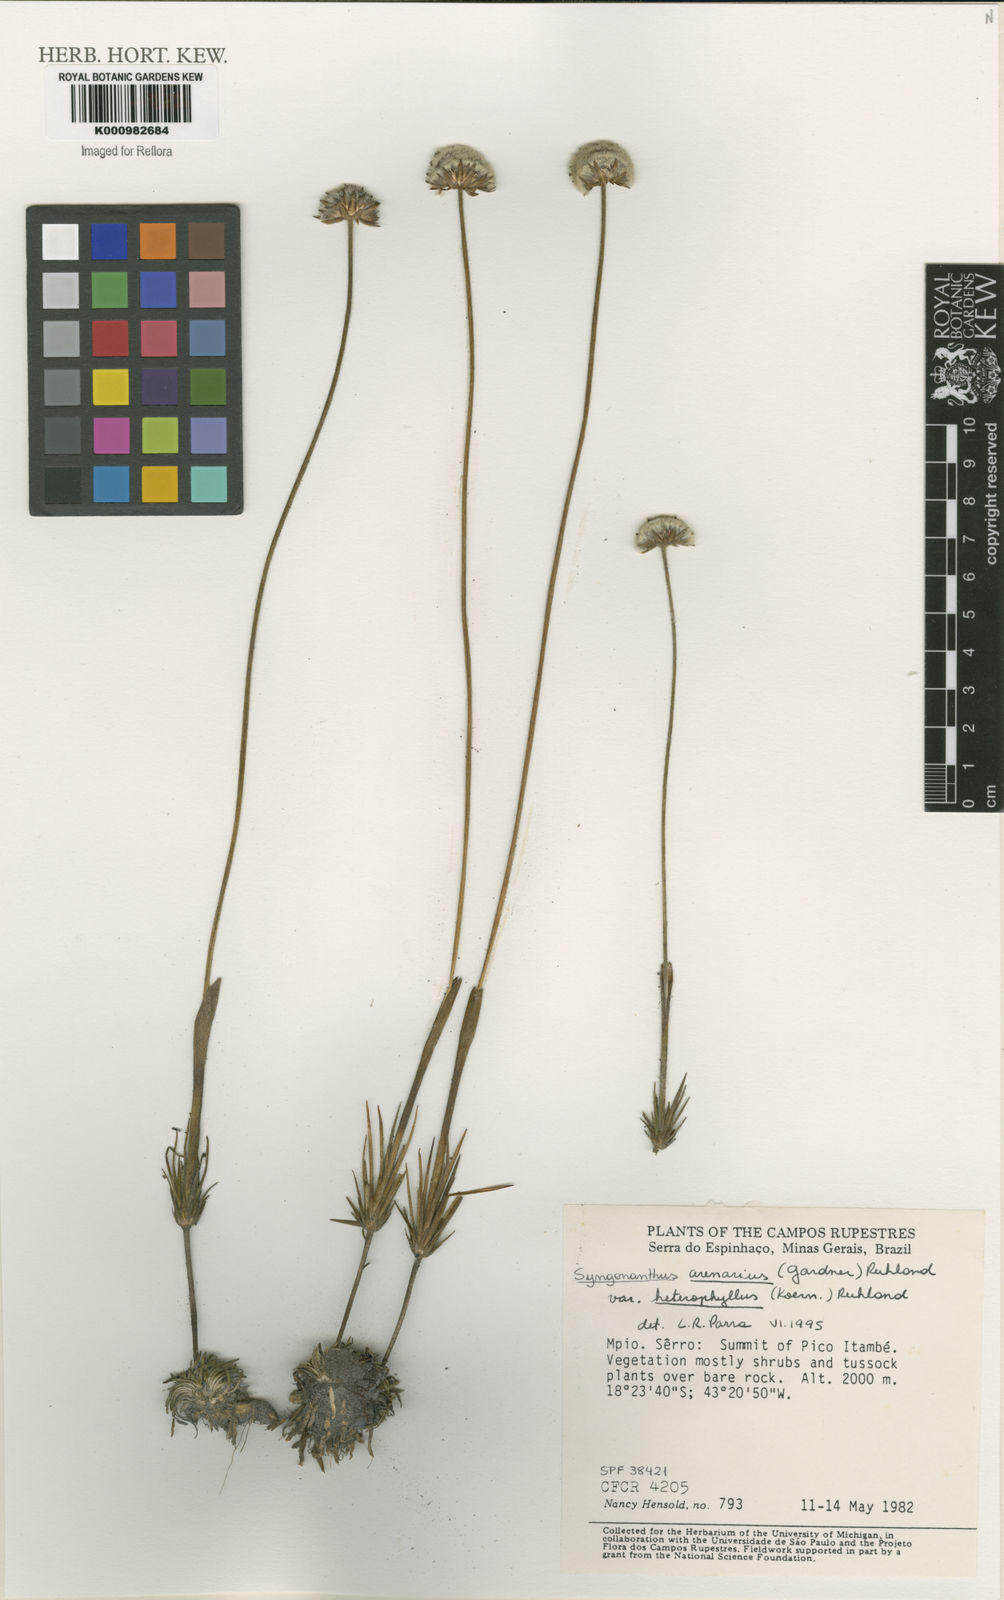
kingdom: Plantae
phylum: Tracheophyta
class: Liliopsida
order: Poales
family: Eriocaulaceae
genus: Syngonanthus
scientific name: Syngonanthus arenarius
